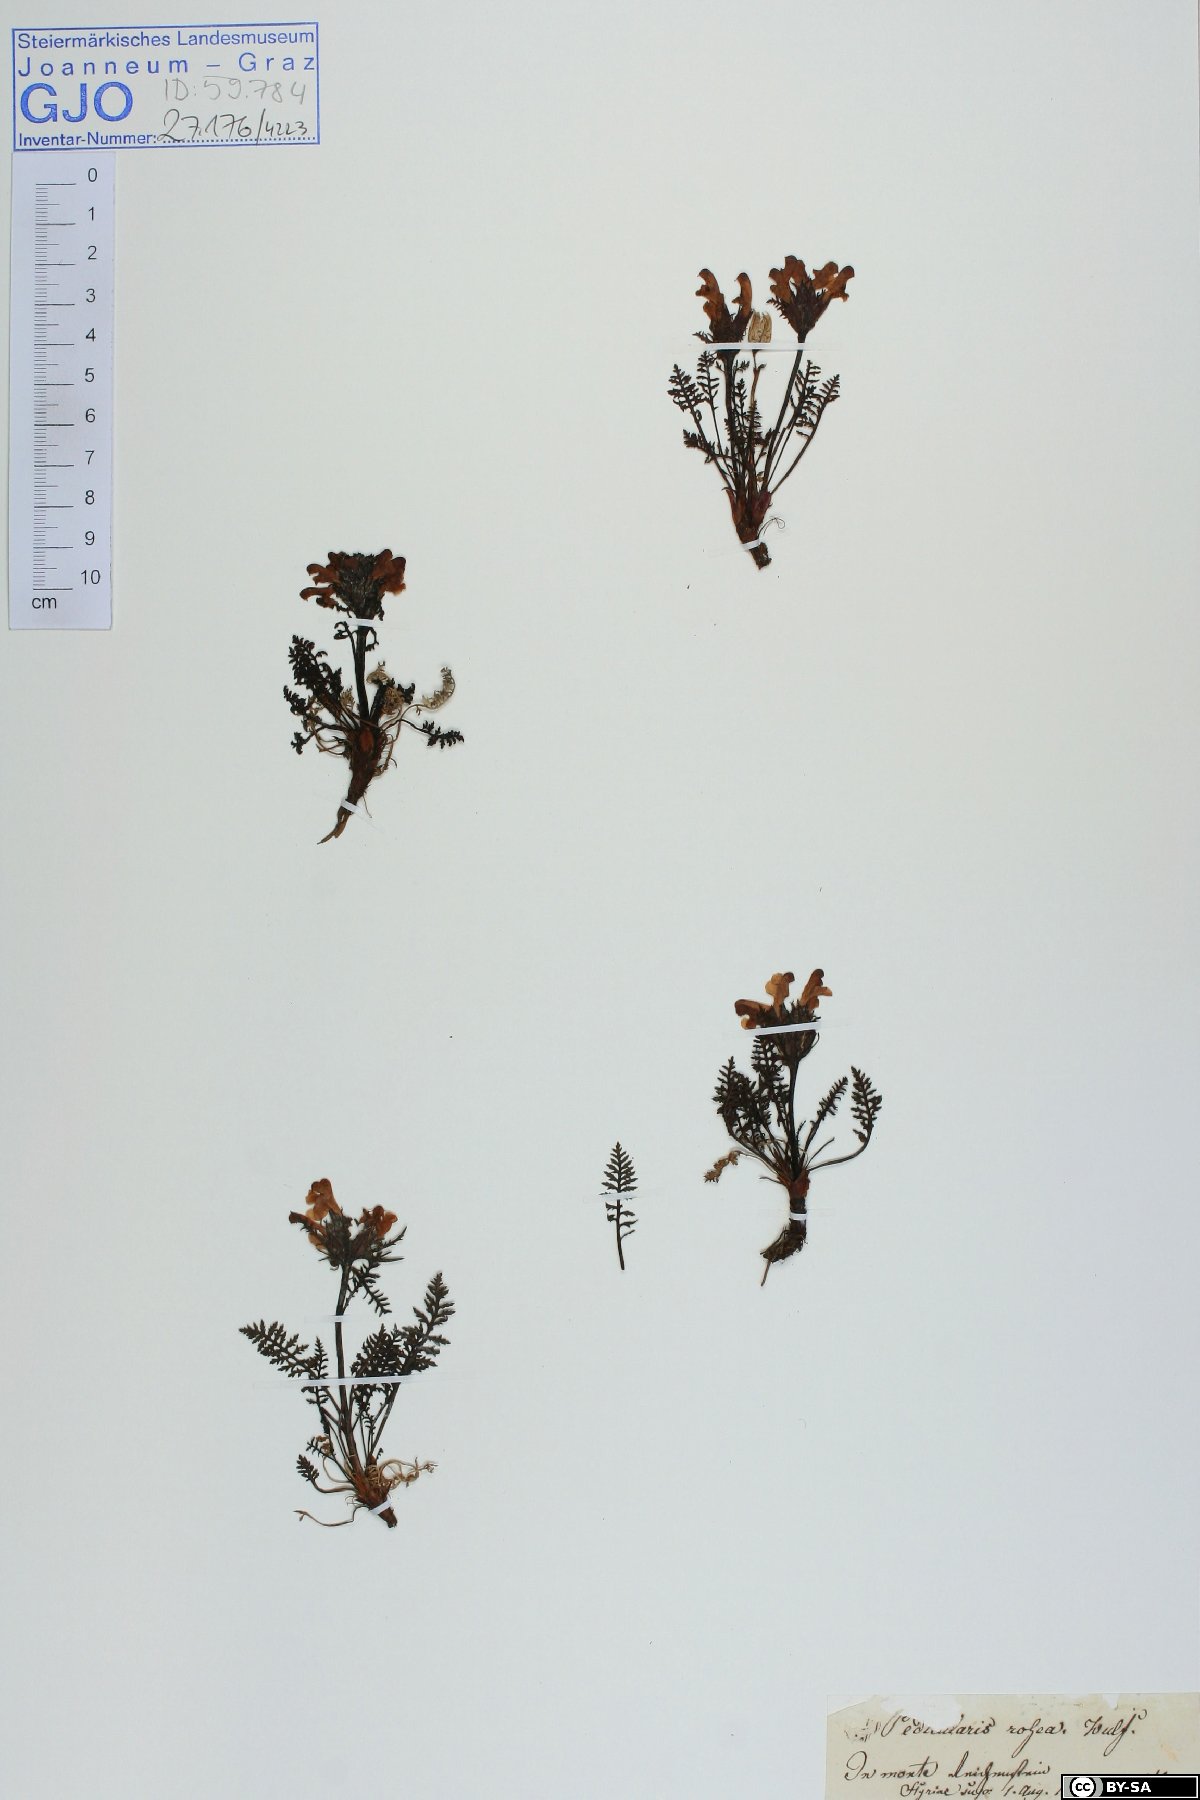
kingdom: Plantae
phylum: Tracheophyta
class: Magnoliopsida
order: Lamiales
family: Orobanchaceae
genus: Pedicularis
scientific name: Pedicularis rosea
